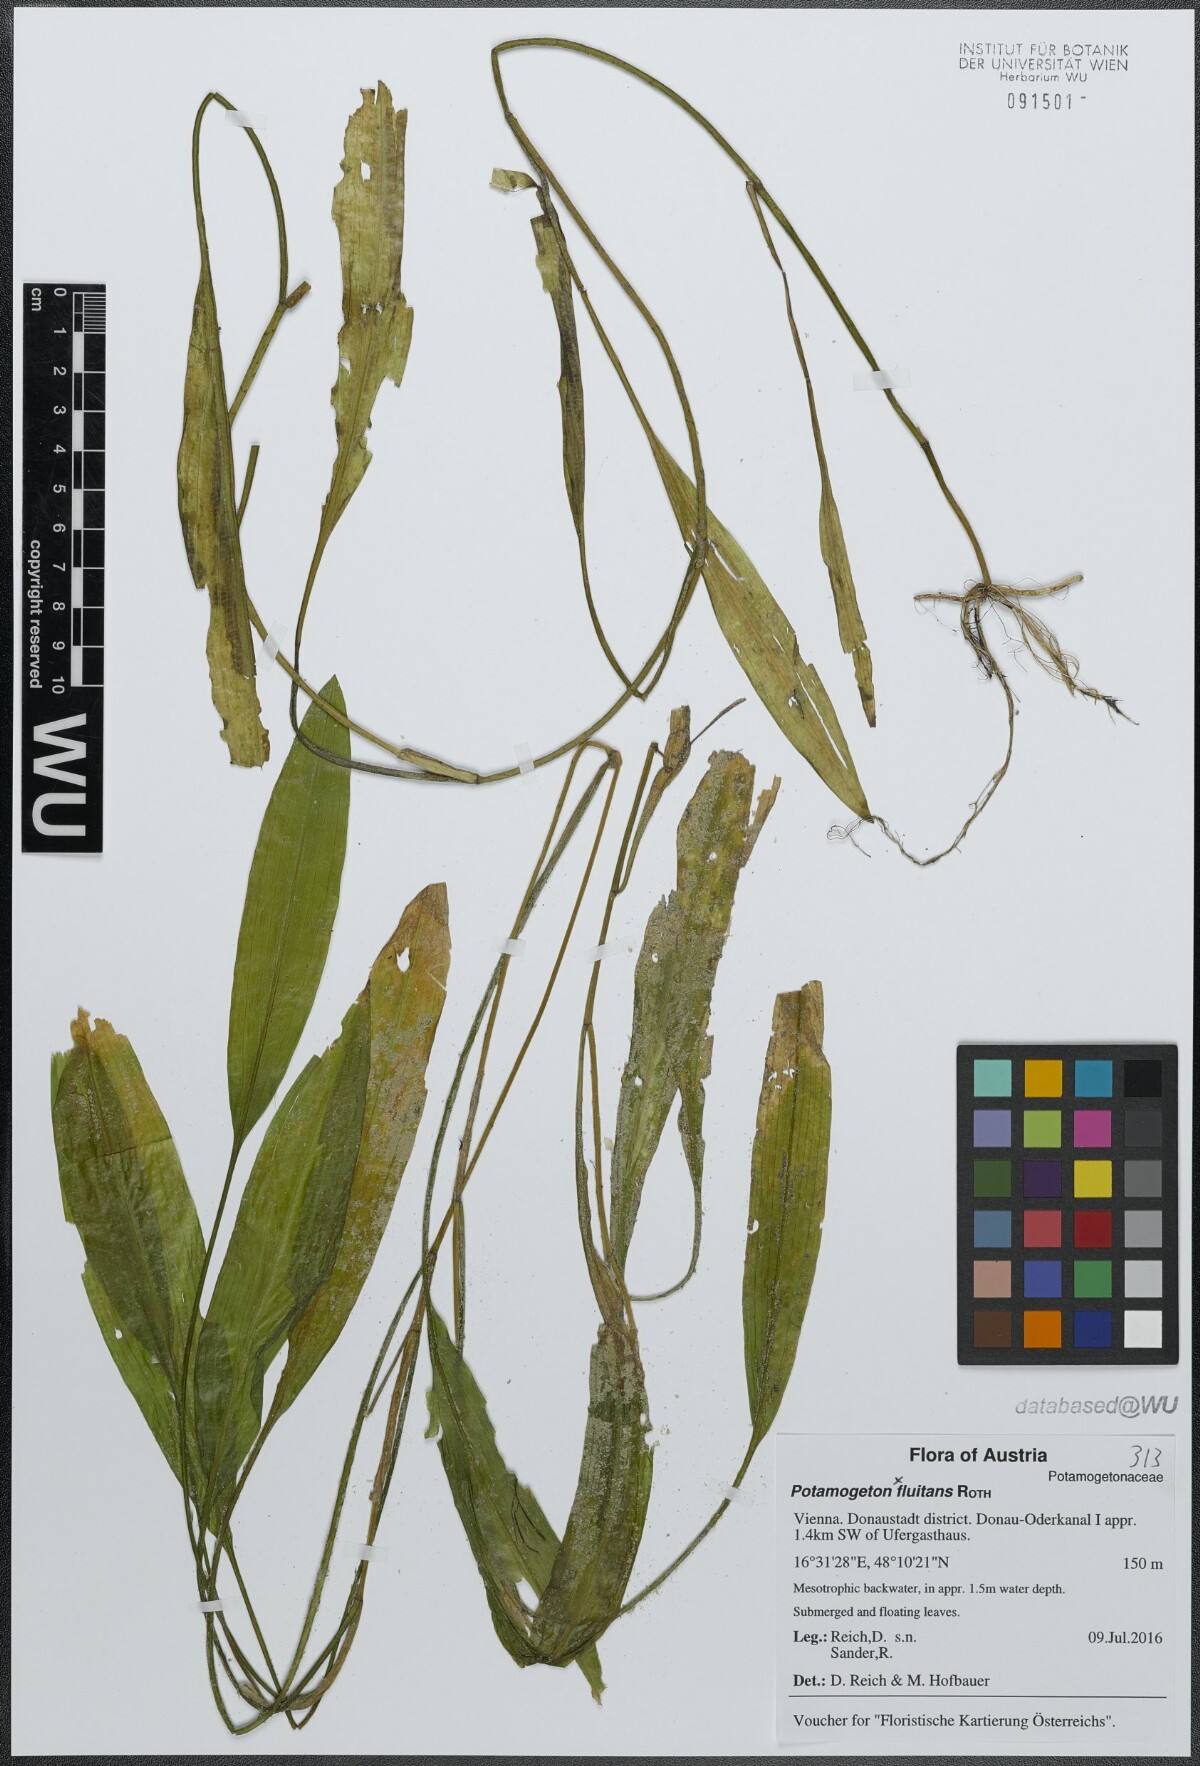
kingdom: Plantae
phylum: Tracheophyta
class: Liliopsida
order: Alismatales
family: Potamogetonaceae
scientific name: Potamogetonaceae
